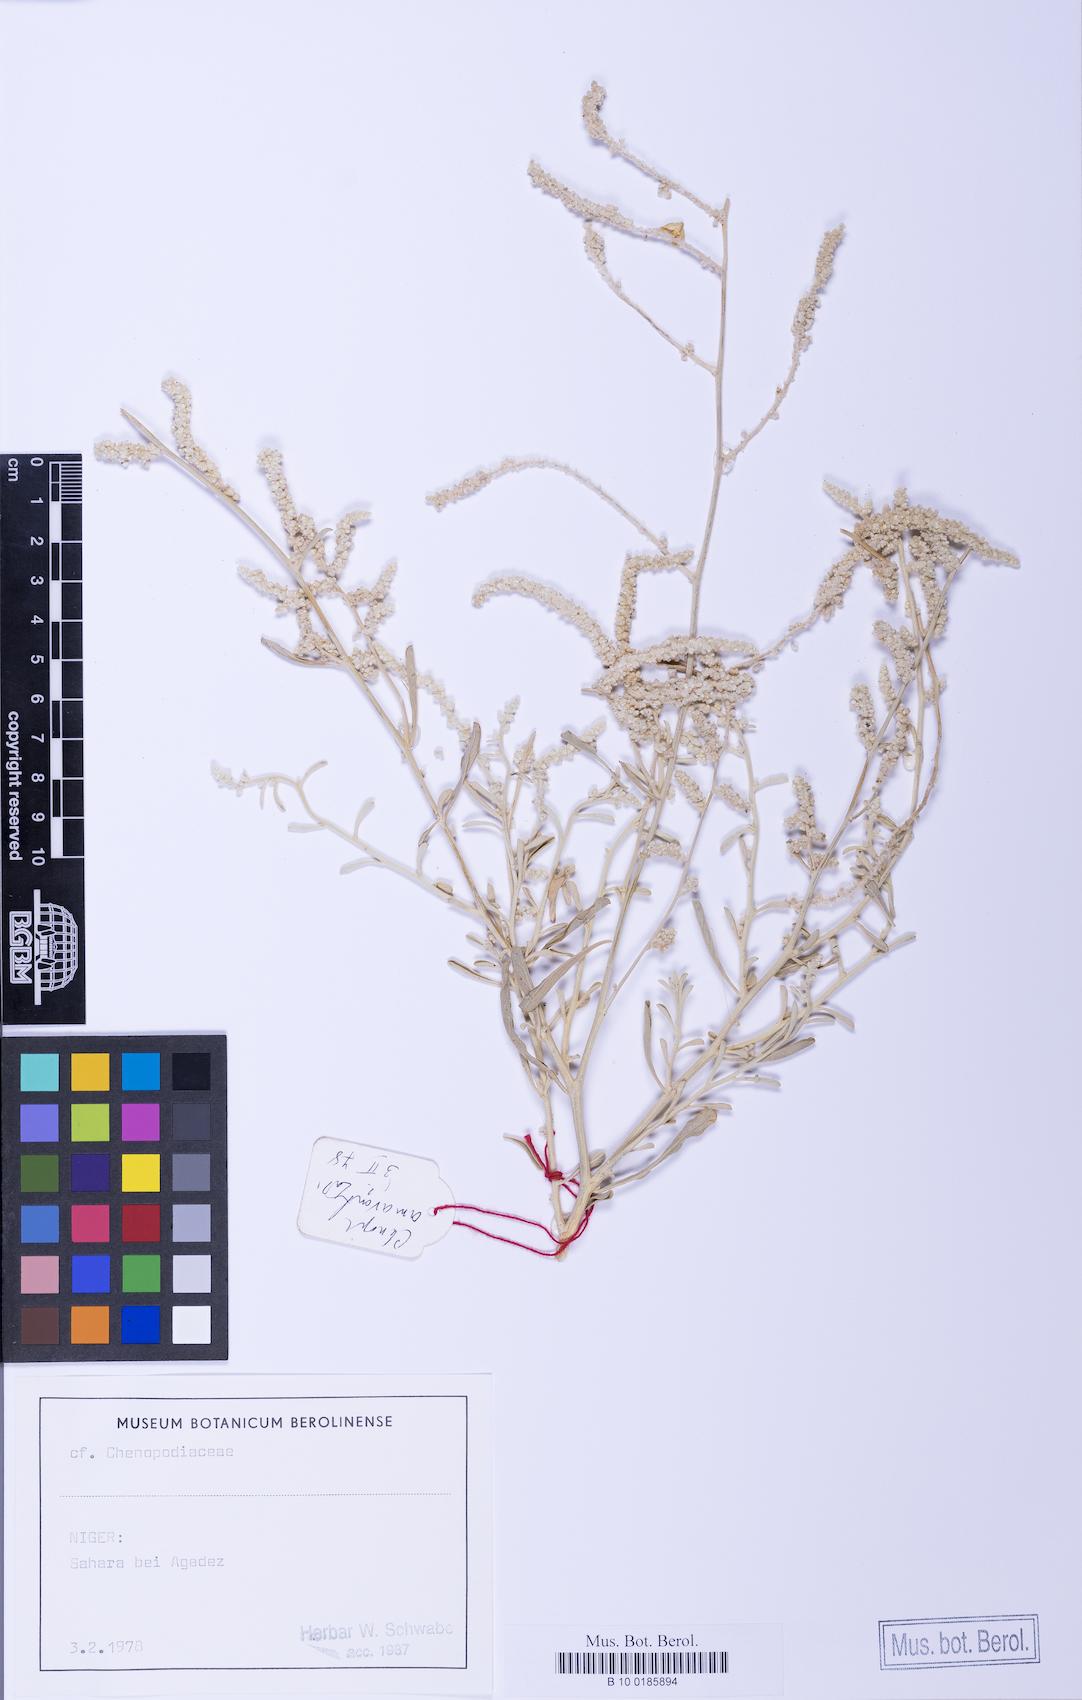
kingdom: Plantae
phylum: Tracheophyta
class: Magnoliopsida
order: Caryophyllales
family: Amaranthaceae
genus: Ouret
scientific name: Ouret lanata
